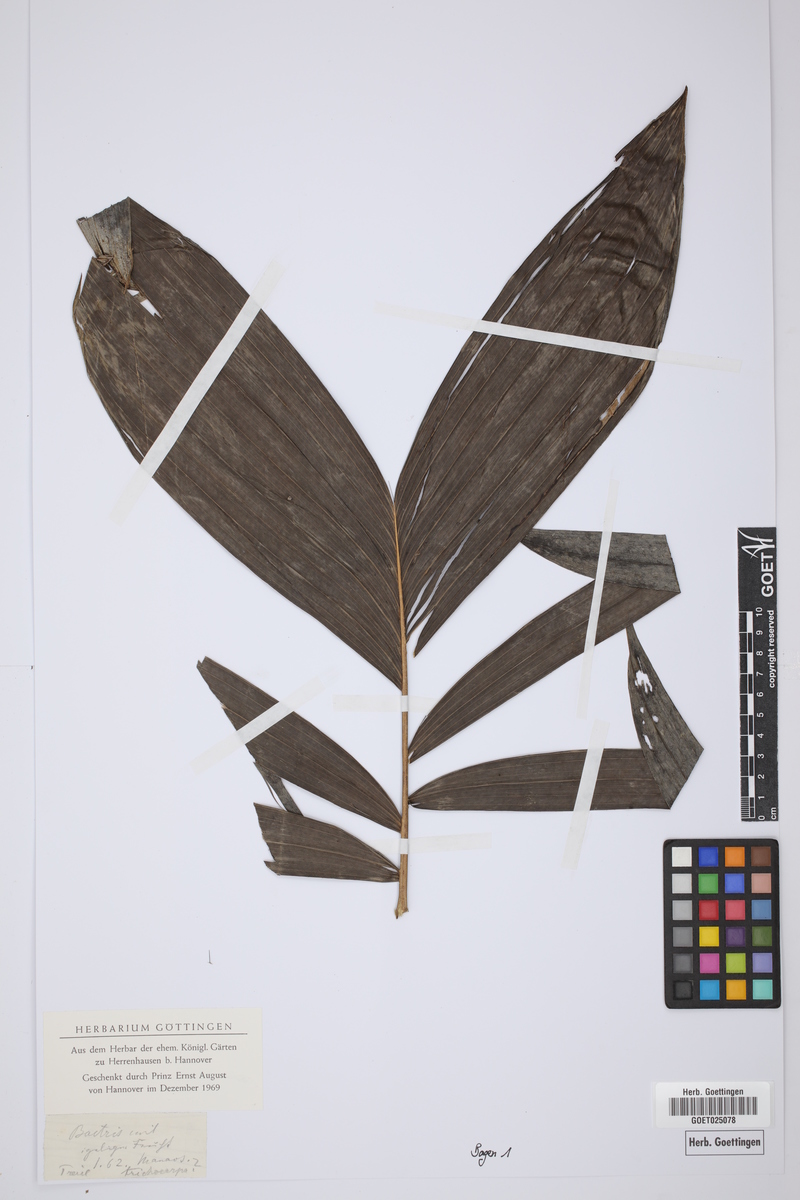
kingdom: Plantae
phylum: Tracheophyta
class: Liliopsida
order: Arecales
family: Arecaceae
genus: Bactris
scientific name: Bactris
